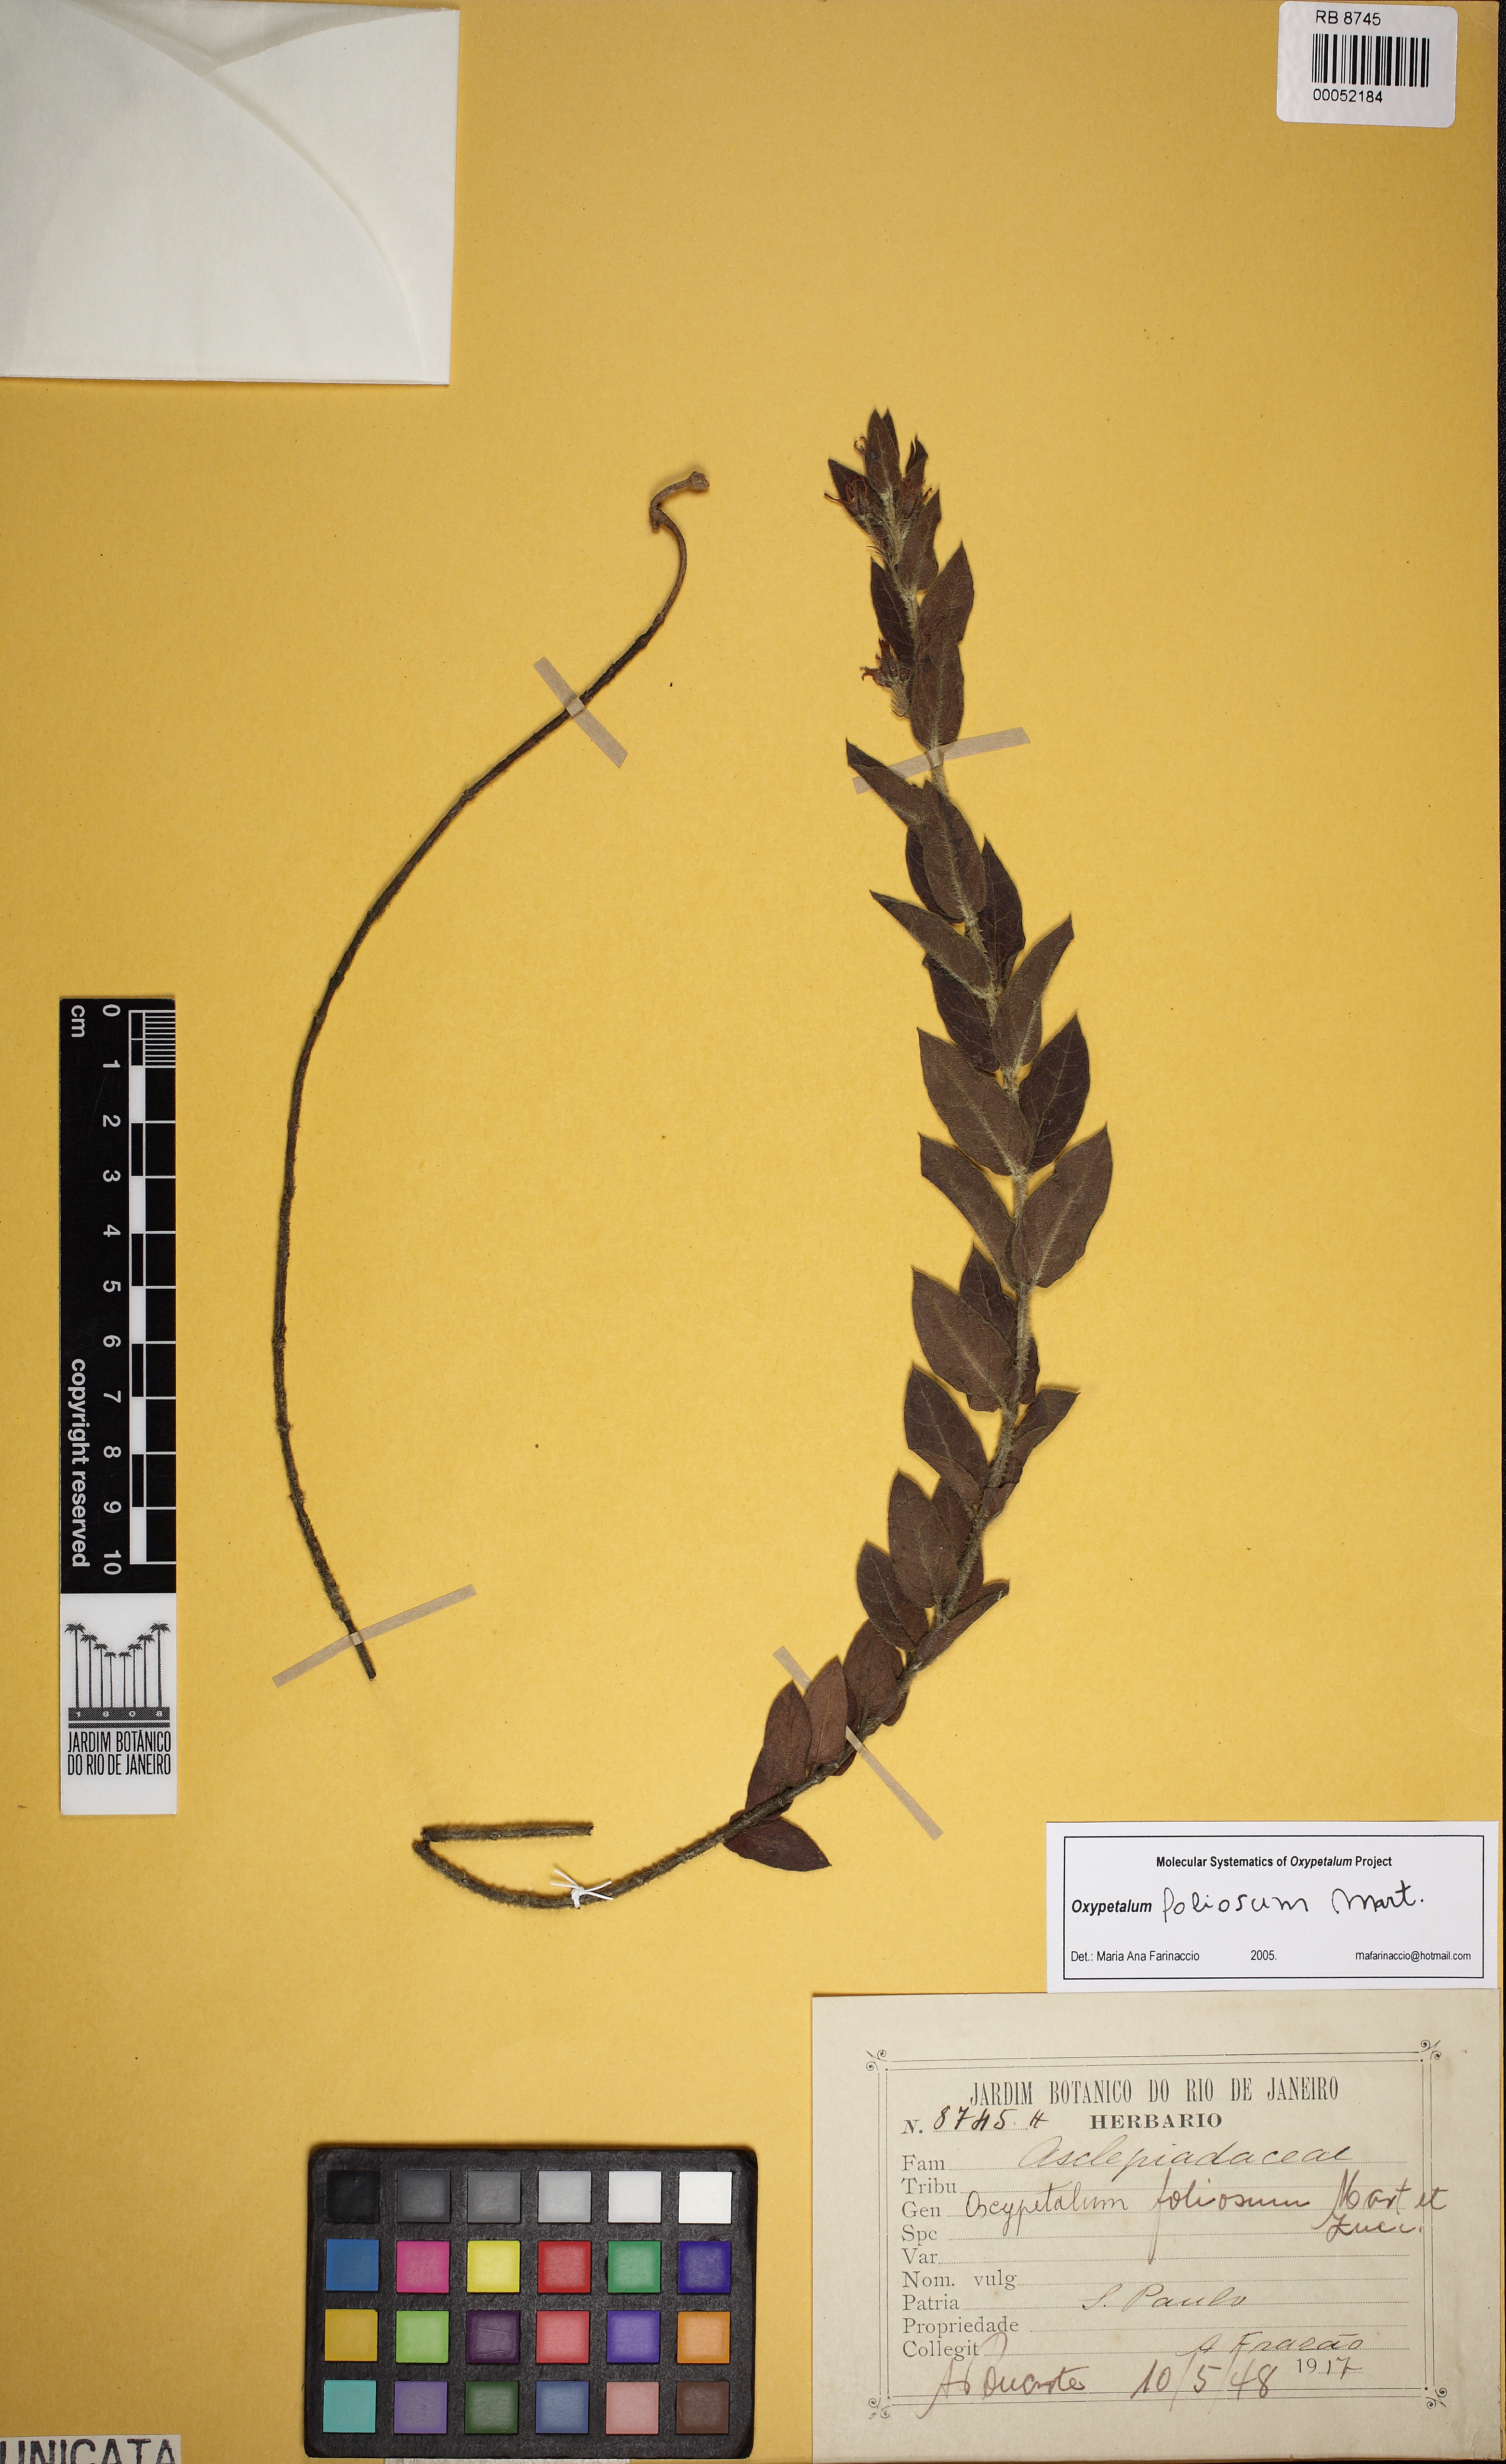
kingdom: Plantae
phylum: Tracheophyta
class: Magnoliopsida
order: Gentianales
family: Apocynaceae
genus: Oxypetalum
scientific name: Oxypetalum foliosum
